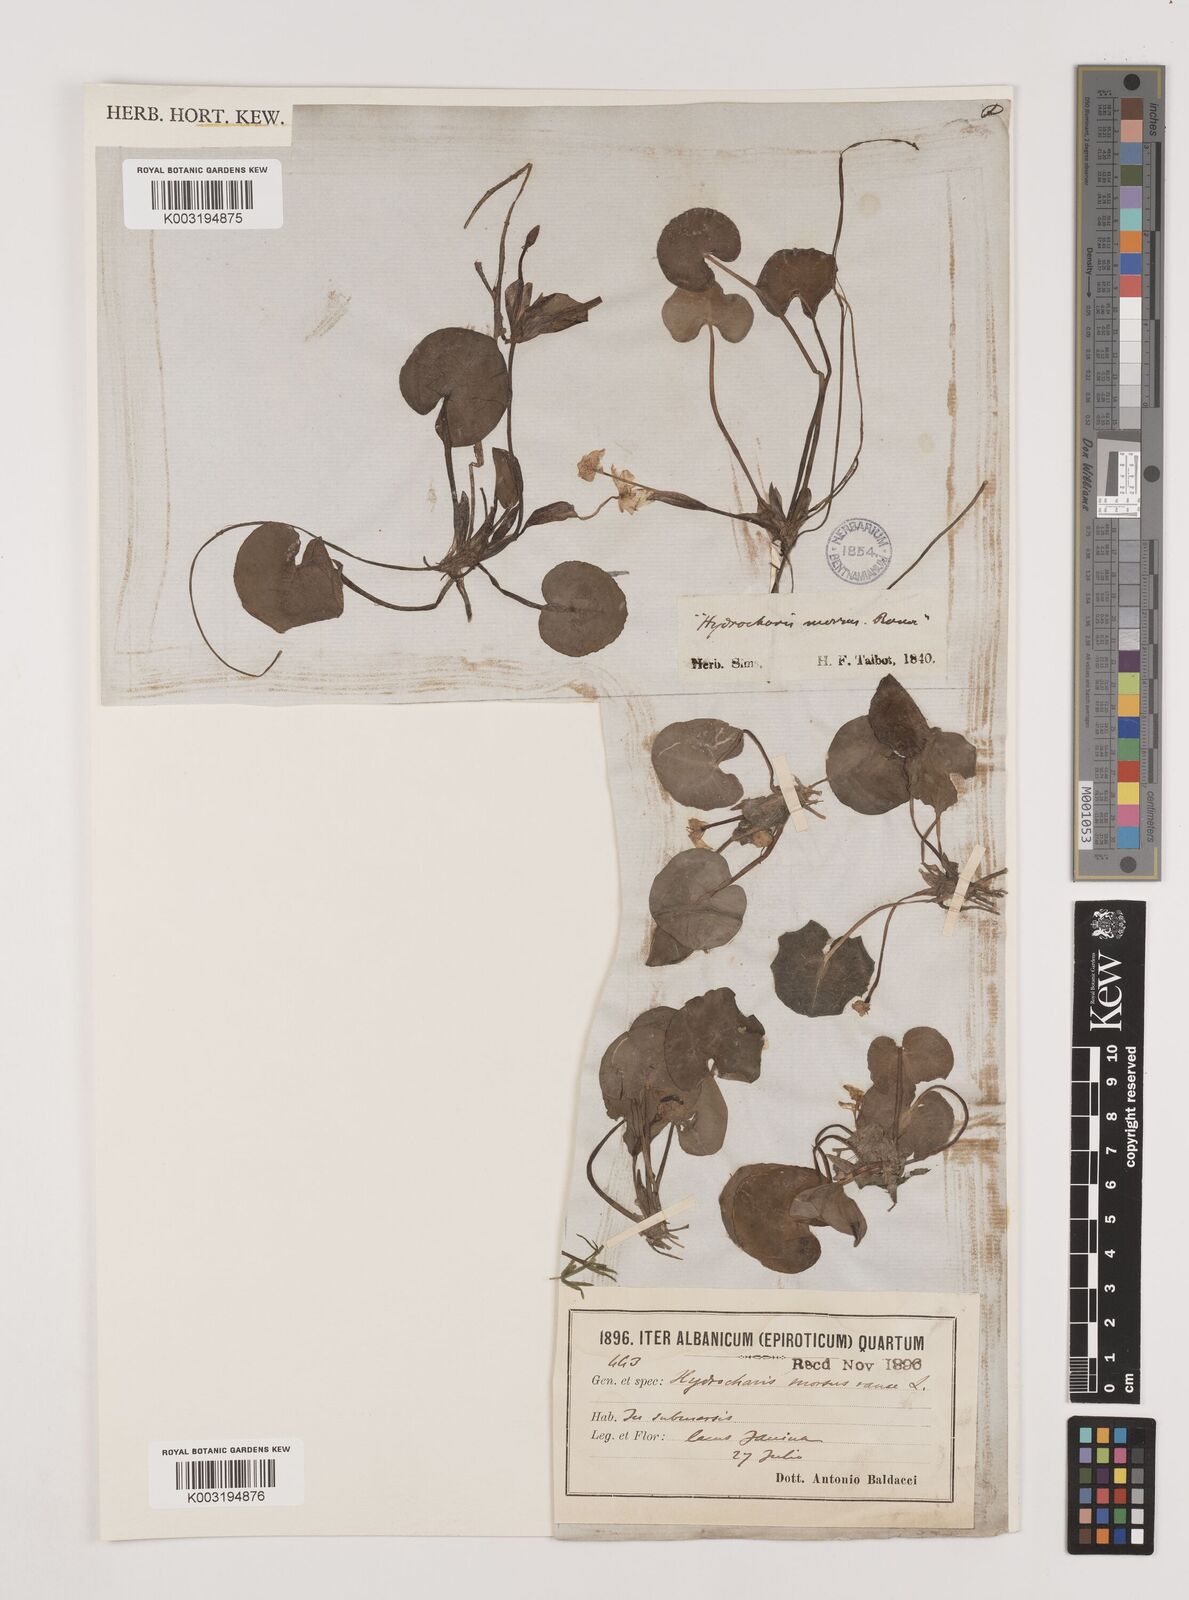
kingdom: Plantae
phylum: Tracheophyta
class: Liliopsida
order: Alismatales
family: Hydrocharitaceae
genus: Hydrocharis
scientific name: Hydrocharis morsus-ranae
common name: Frogbit
